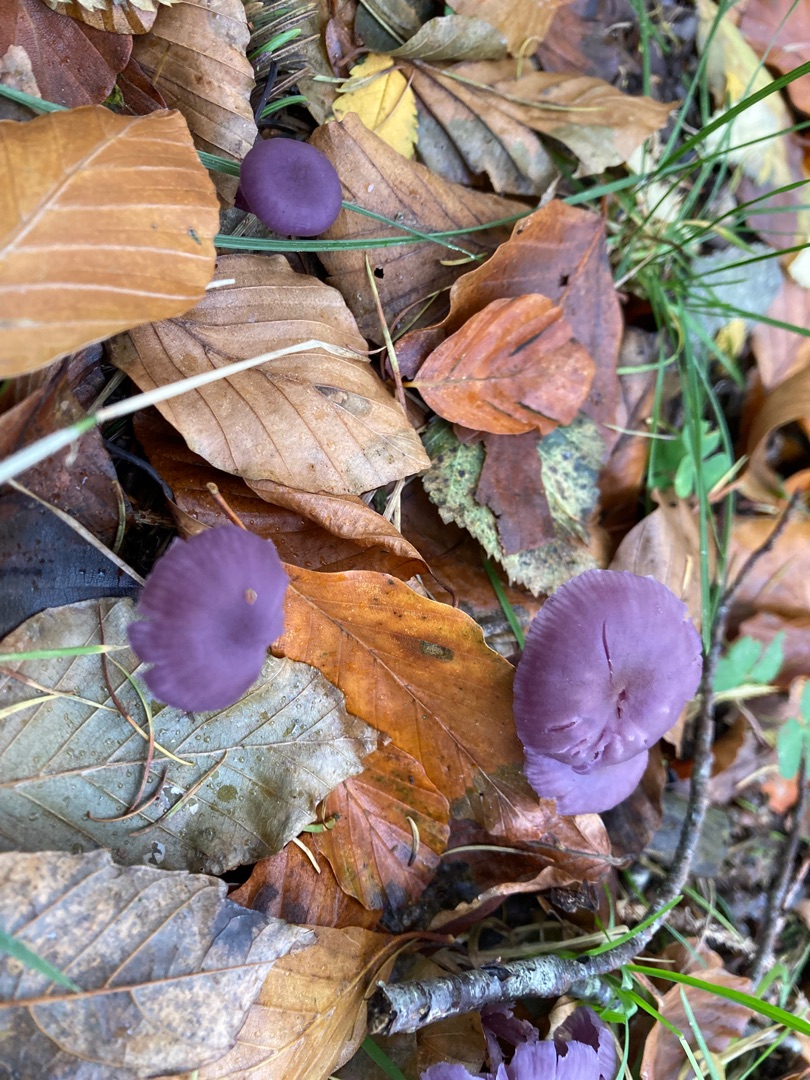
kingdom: Fungi
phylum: Basidiomycota
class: Agaricomycetes
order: Agaricales
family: Hydnangiaceae
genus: Laccaria
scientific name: Laccaria amethystina
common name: Violet ametysthat
